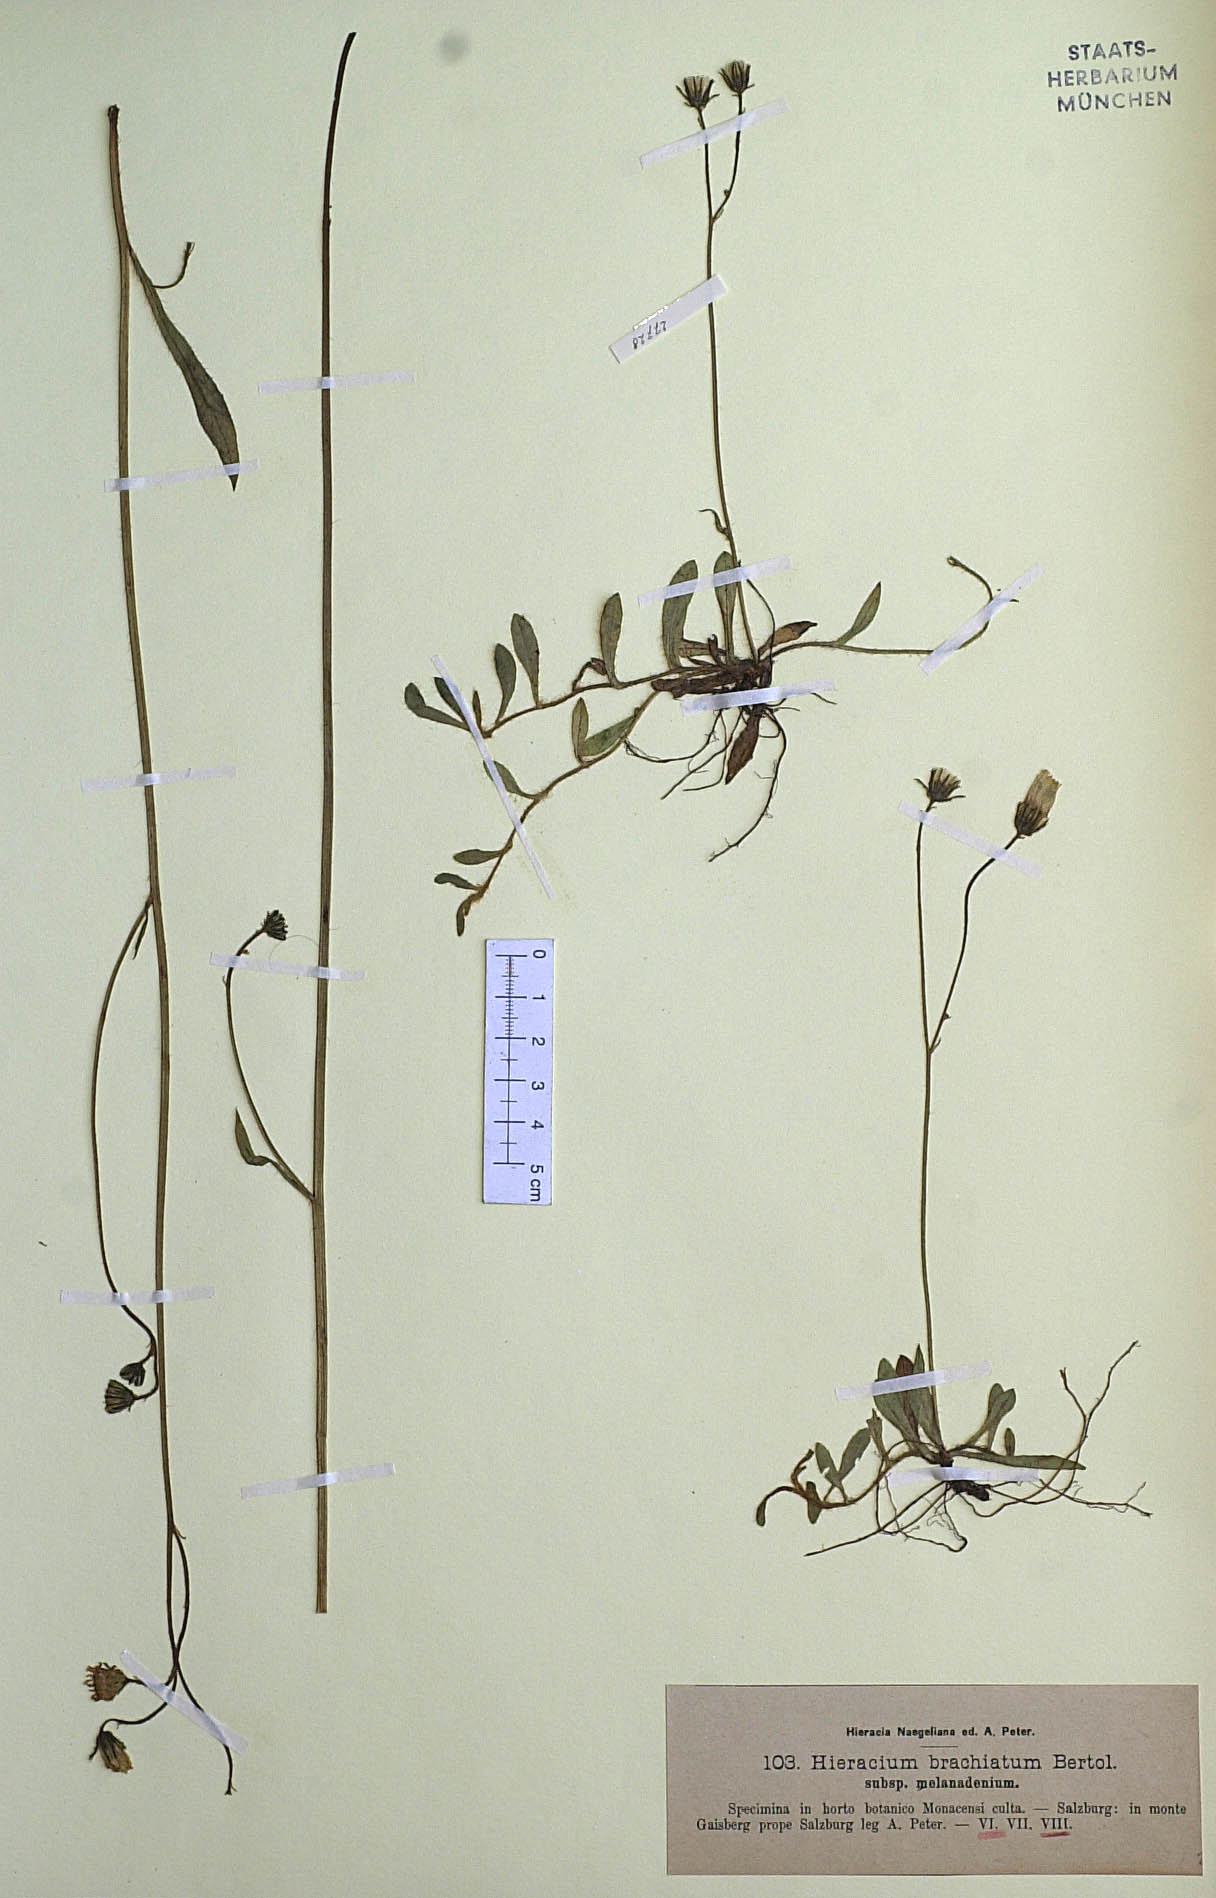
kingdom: Plantae
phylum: Tracheophyta
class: Magnoliopsida
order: Asterales
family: Asteraceae
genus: Pilosella
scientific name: Pilosella acutifolia
